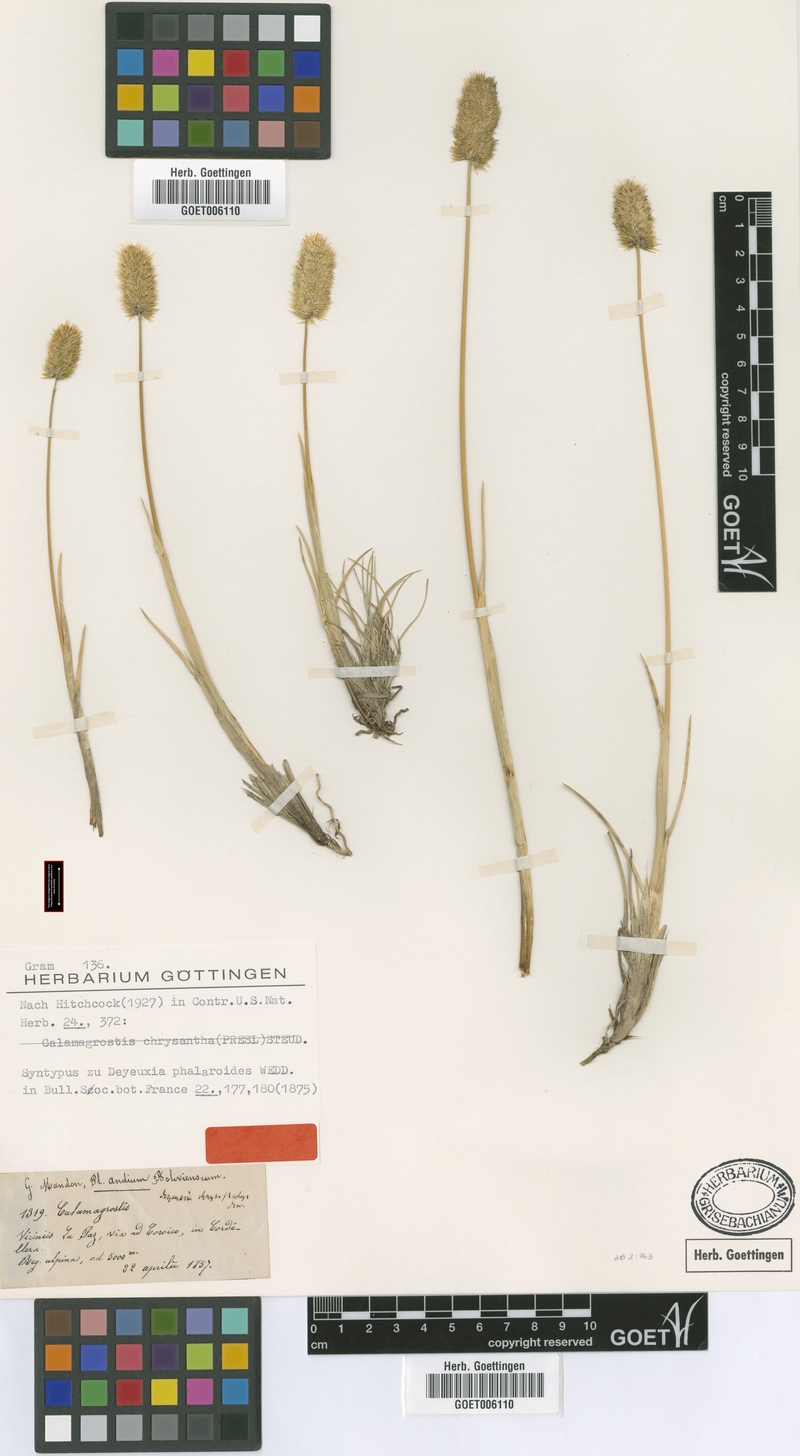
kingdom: Plantae
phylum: Tracheophyta
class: Liliopsida
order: Poales
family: Poaceae
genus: Deschampsia
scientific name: Deschampsia chrysantha
